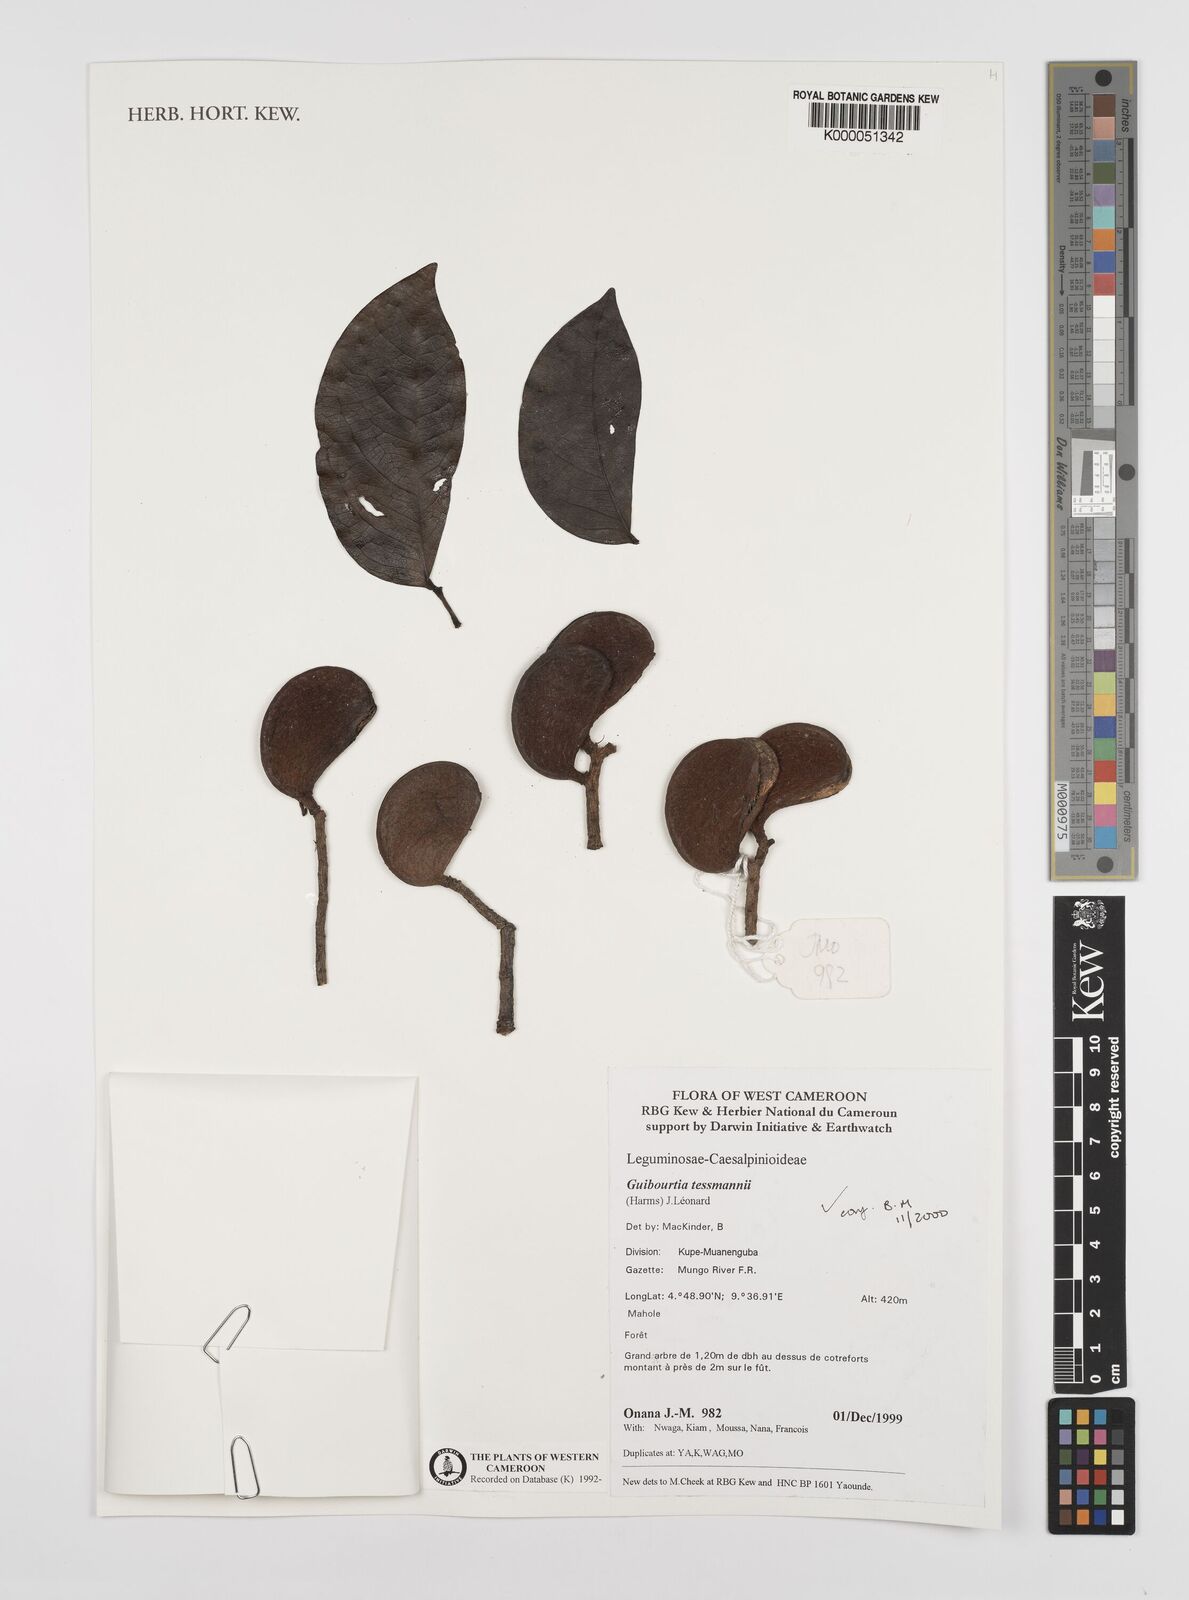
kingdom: Plantae
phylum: Tracheophyta
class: Magnoliopsida
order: Fabales
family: Fabaceae
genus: Guibourtia
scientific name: Guibourtia
